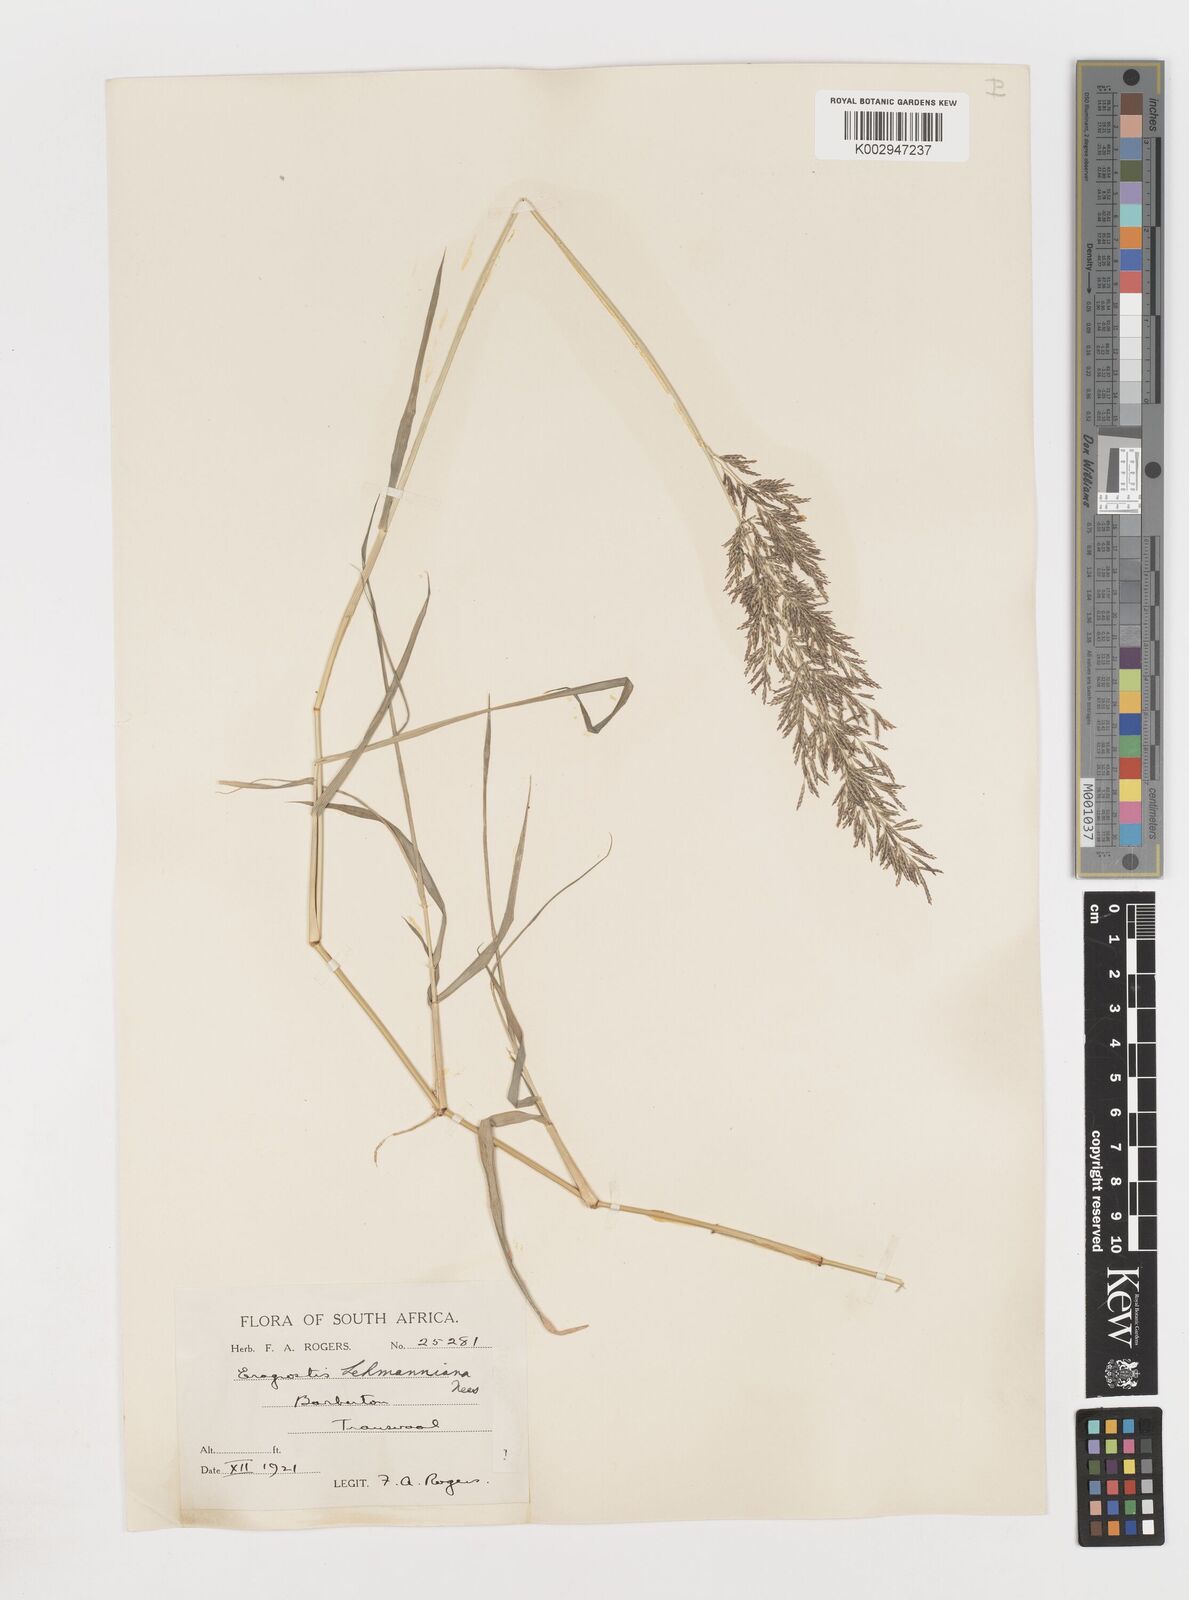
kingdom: Plantae
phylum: Tracheophyta
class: Liliopsida
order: Poales
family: Poaceae
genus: Eragrostis
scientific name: Eragrostis
